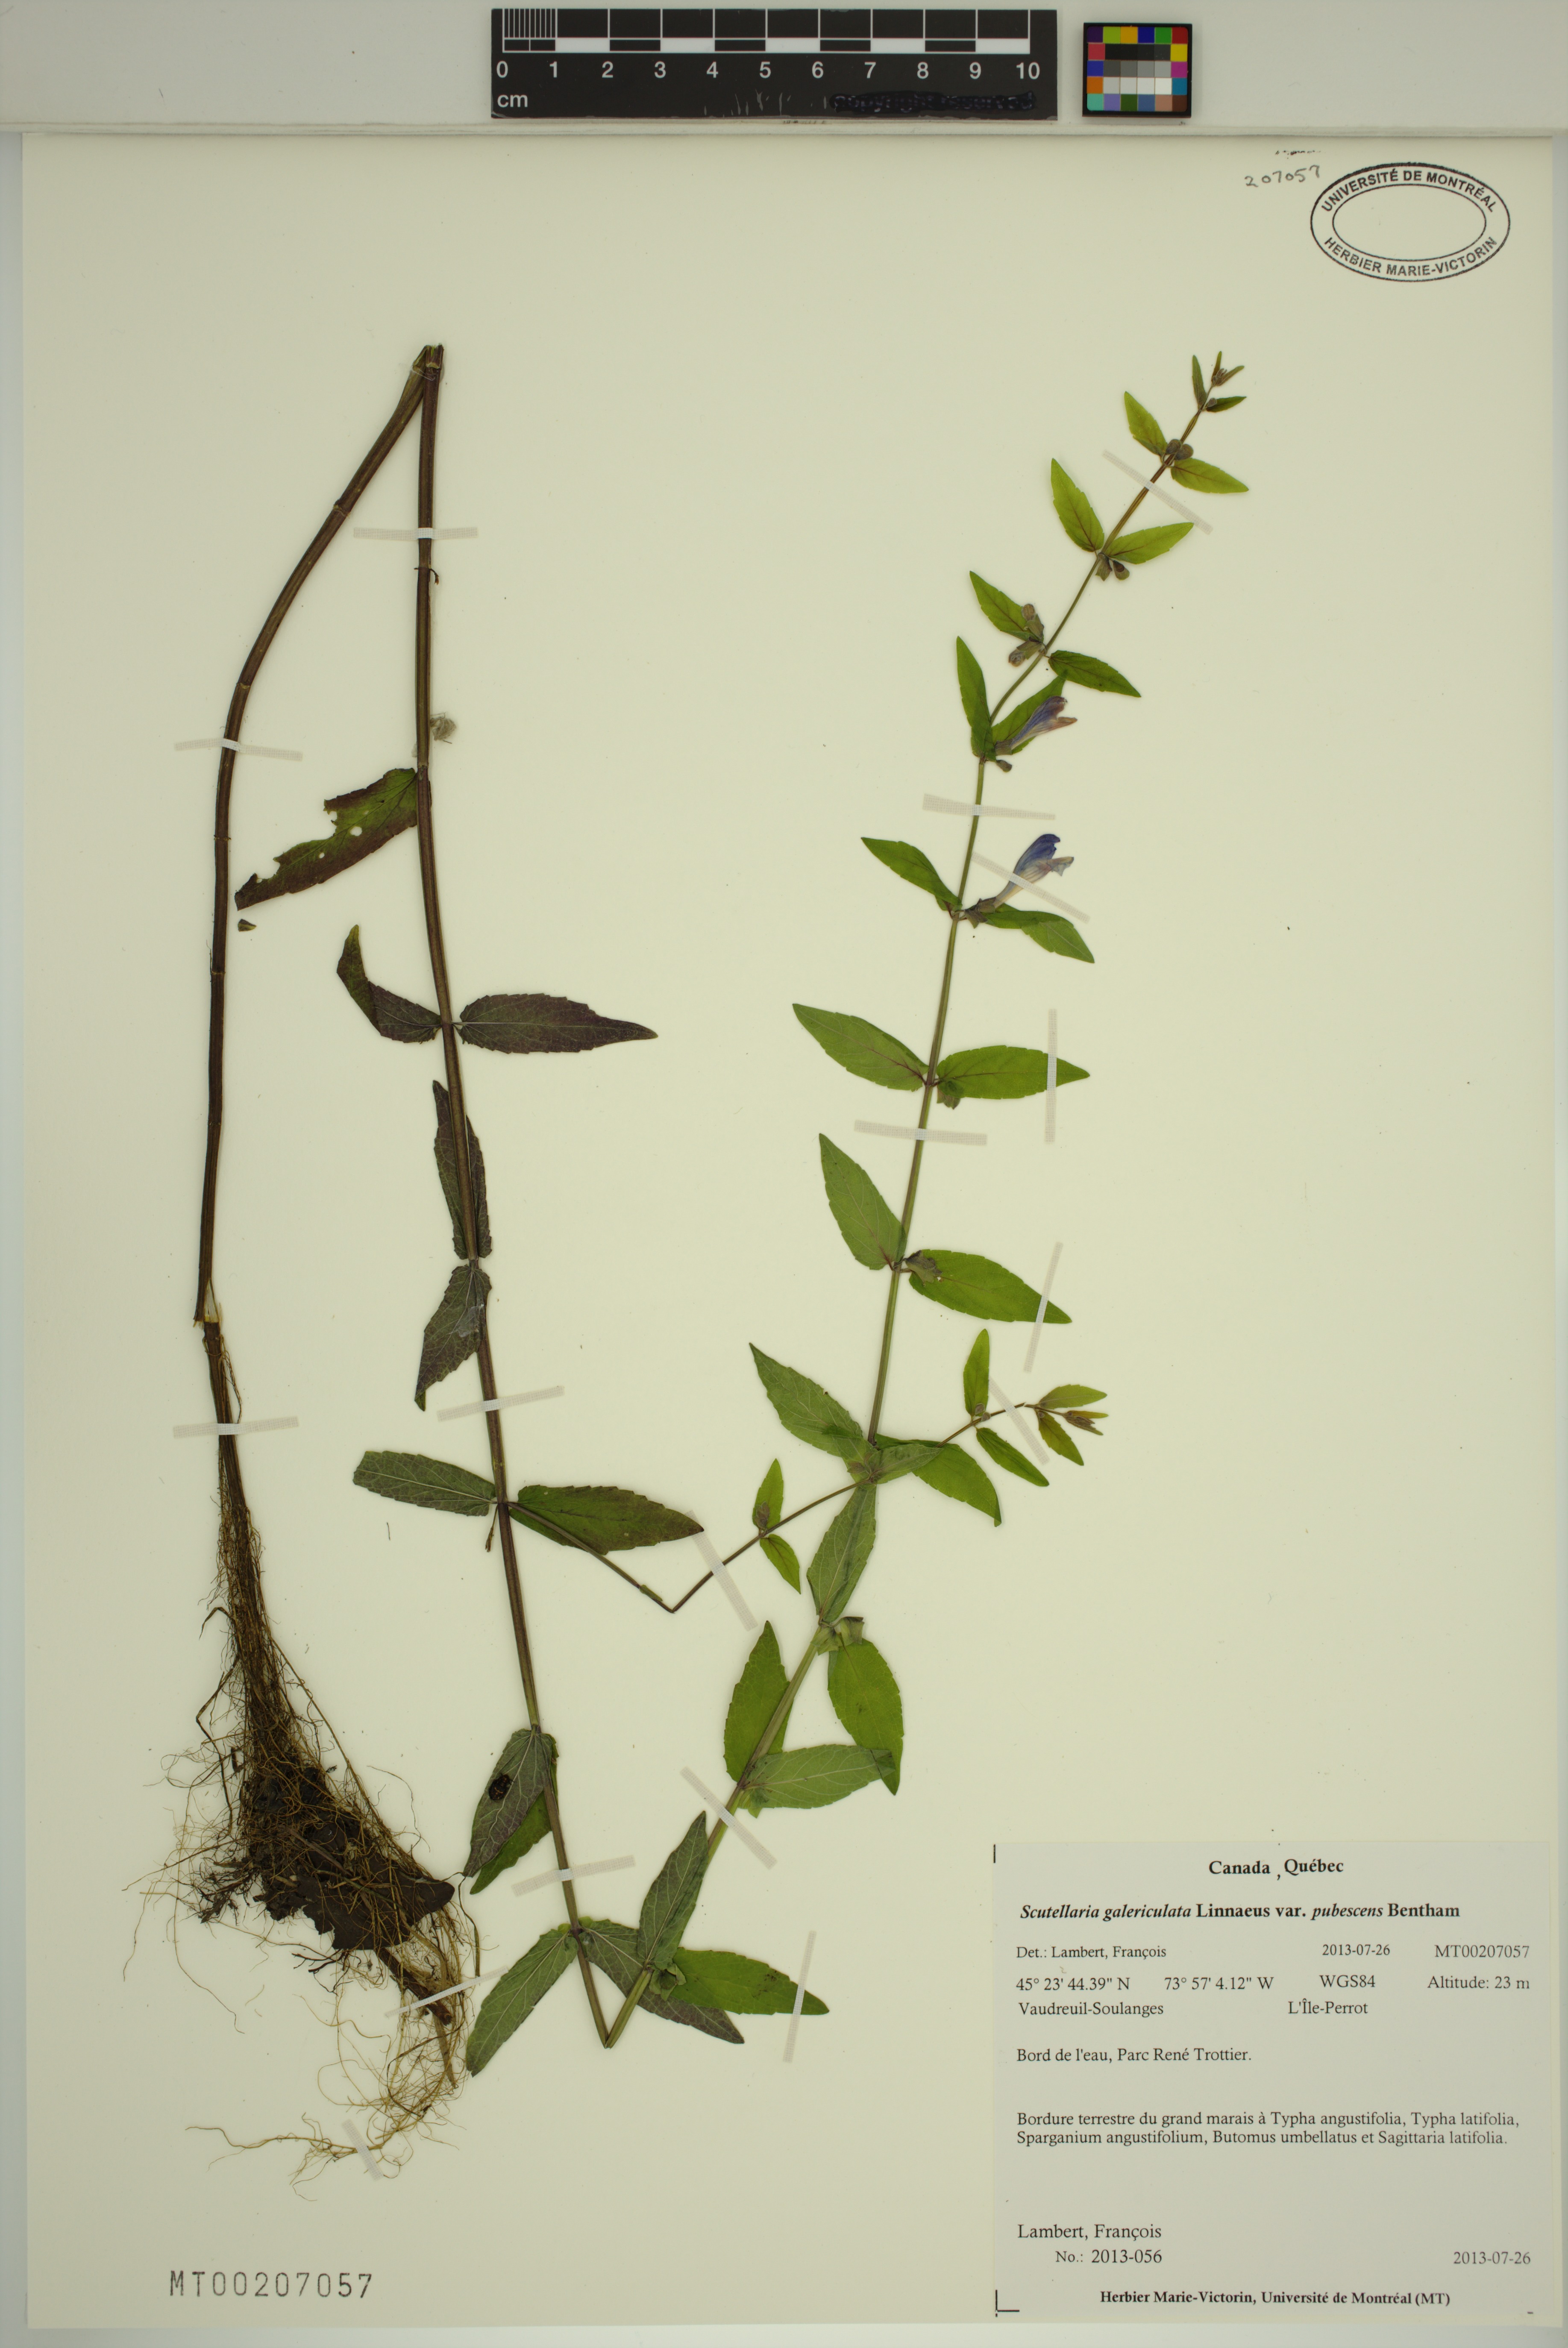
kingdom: Plantae
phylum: Tracheophyta
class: Magnoliopsida
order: Lamiales
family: Lamiaceae
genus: Scutellaria
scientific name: Scutellaria nicholsonii
